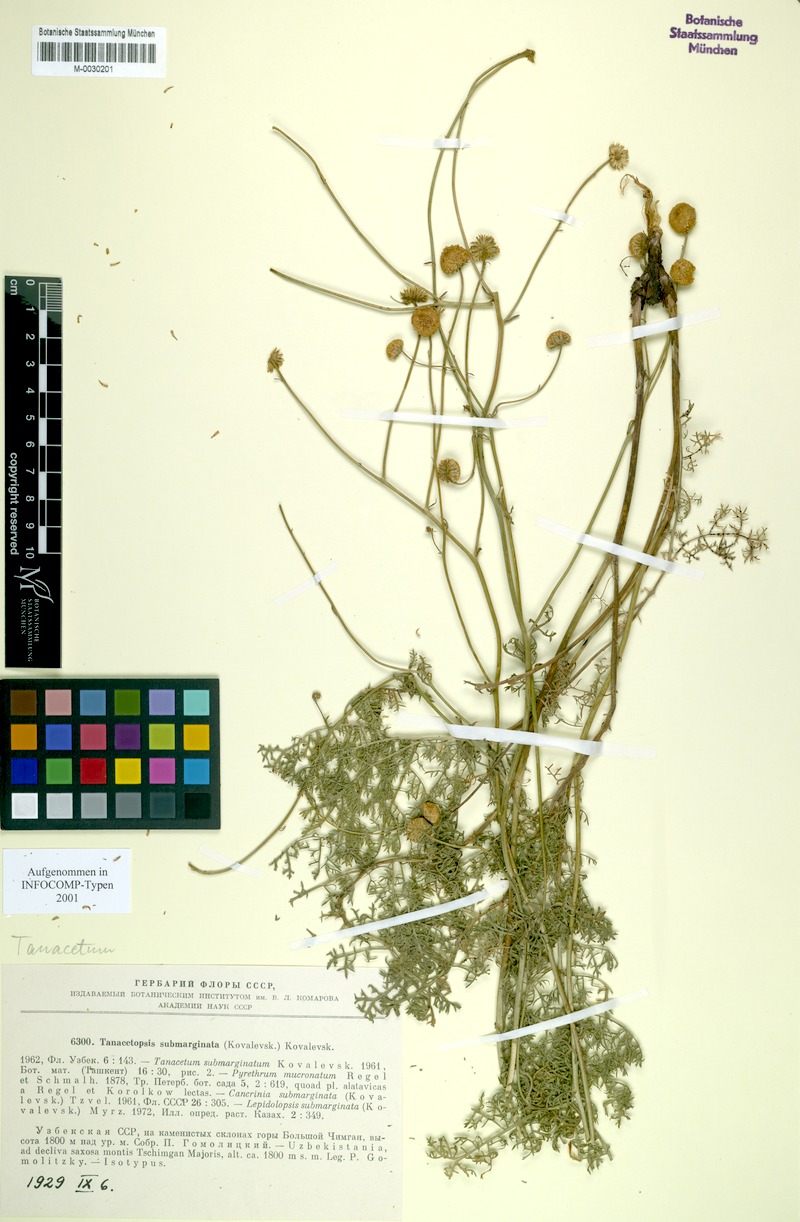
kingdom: Plantae
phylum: Tracheophyta
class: Magnoliopsida
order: Asterales
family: Asteraceae
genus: Tanacetopsis
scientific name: Tanacetopsis submarginata
